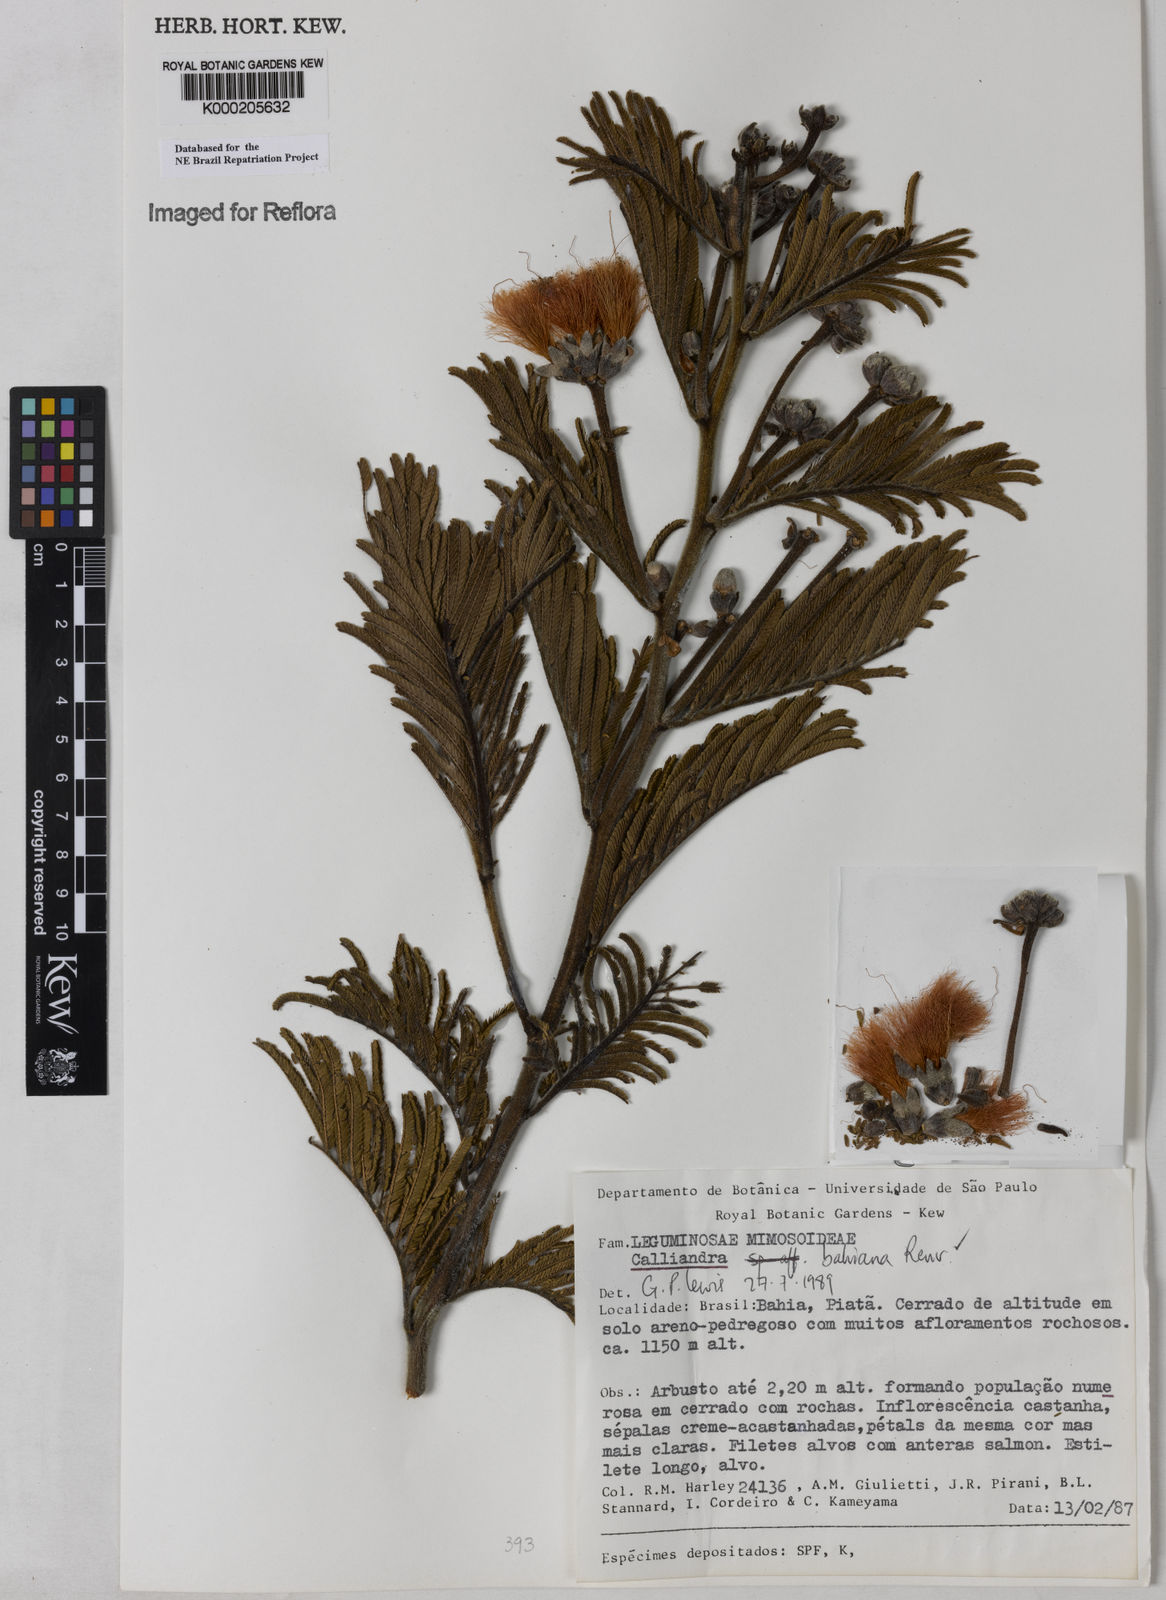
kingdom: Plantae
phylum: Tracheophyta
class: Magnoliopsida
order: Fabales
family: Fabaceae
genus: Calliandra
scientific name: Calliandra bahiana
